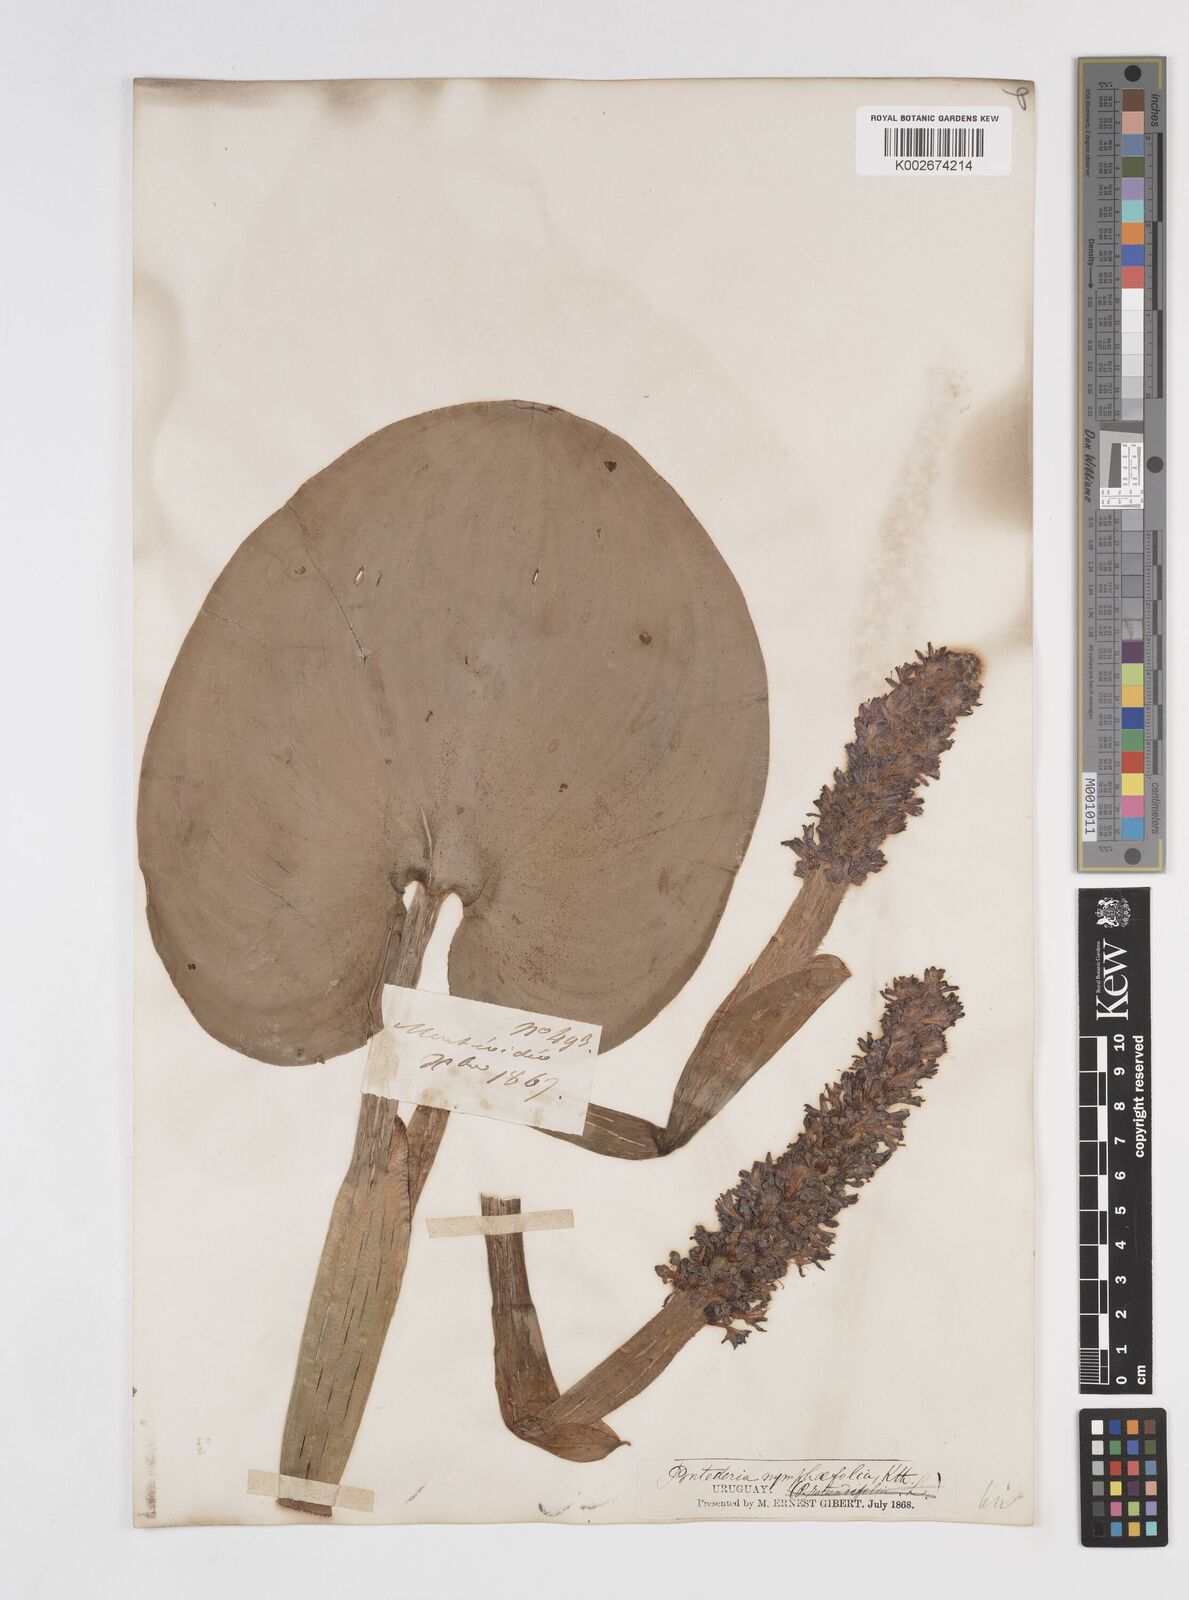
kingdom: Plantae
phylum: Tracheophyta
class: Liliopsida
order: Commelinales
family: Pontederiaceae
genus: Pontederia
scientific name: Pontederia cordata
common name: Pickerelweed
